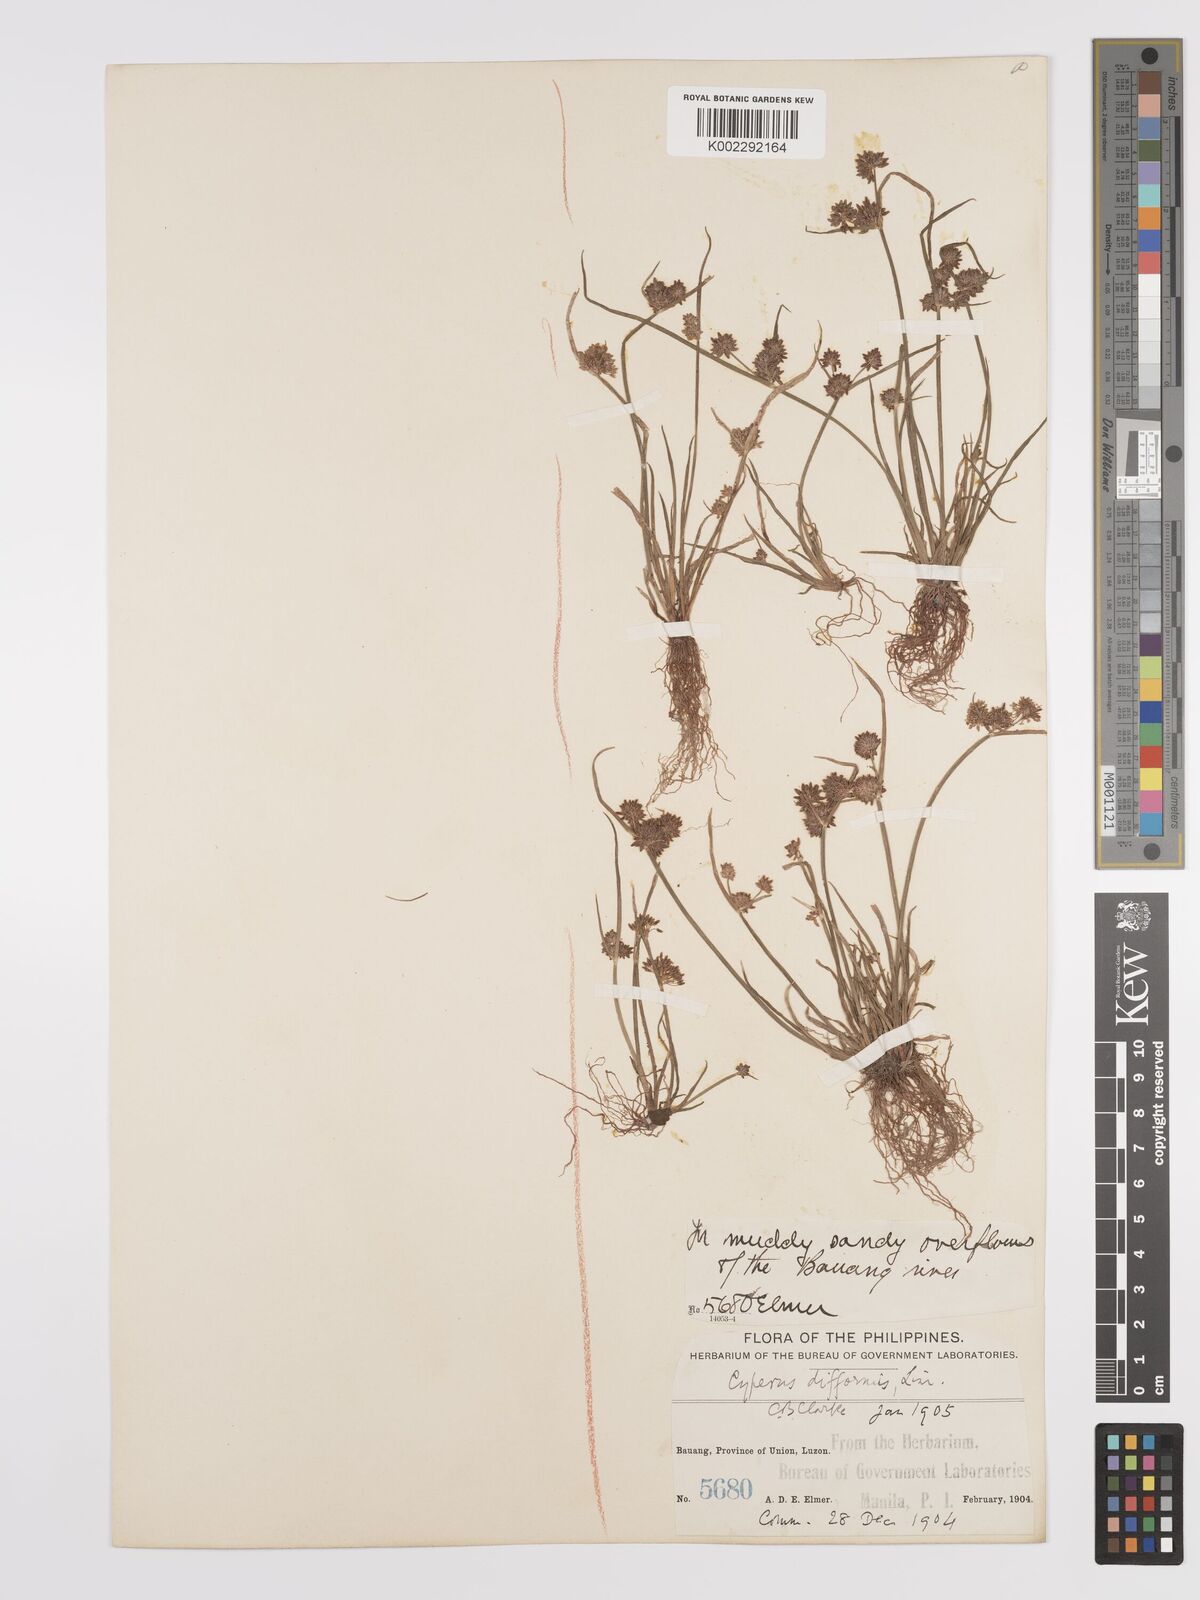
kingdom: Plantae
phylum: Tracheophyta
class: Liliopsida
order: Poales
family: Cyperaceae
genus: Cyperus
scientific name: Cyperus difformis
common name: Variable flatsedge
